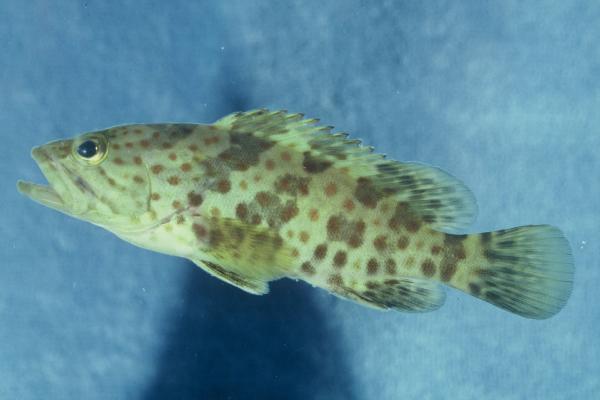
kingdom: Animalia
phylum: Chordata
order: Perciformes
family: Serranidae
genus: Epinephelus
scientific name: Epinephelus coioides
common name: Orange-spotted grouper
